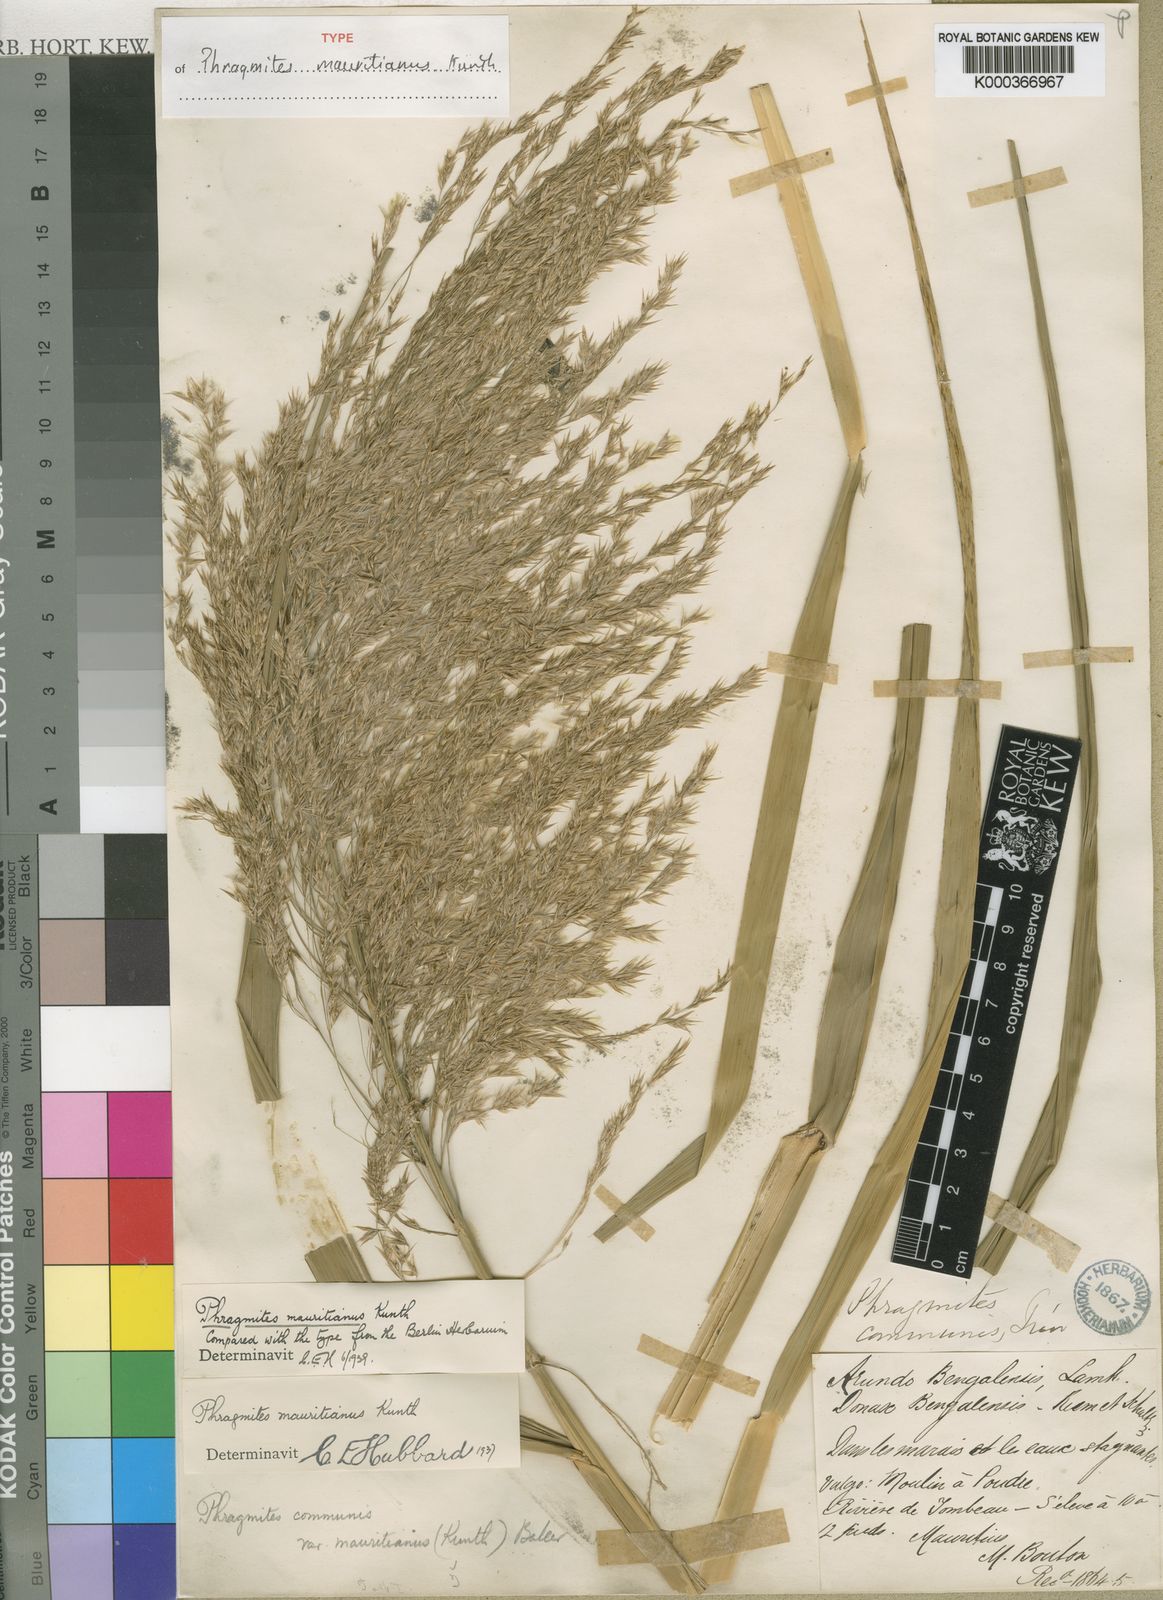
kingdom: Plantae
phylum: Tracheophyta
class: Liliopsida
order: Poales
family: Poaceae
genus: Phragmites
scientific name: Phragmites mauritianus
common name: Reed grass
